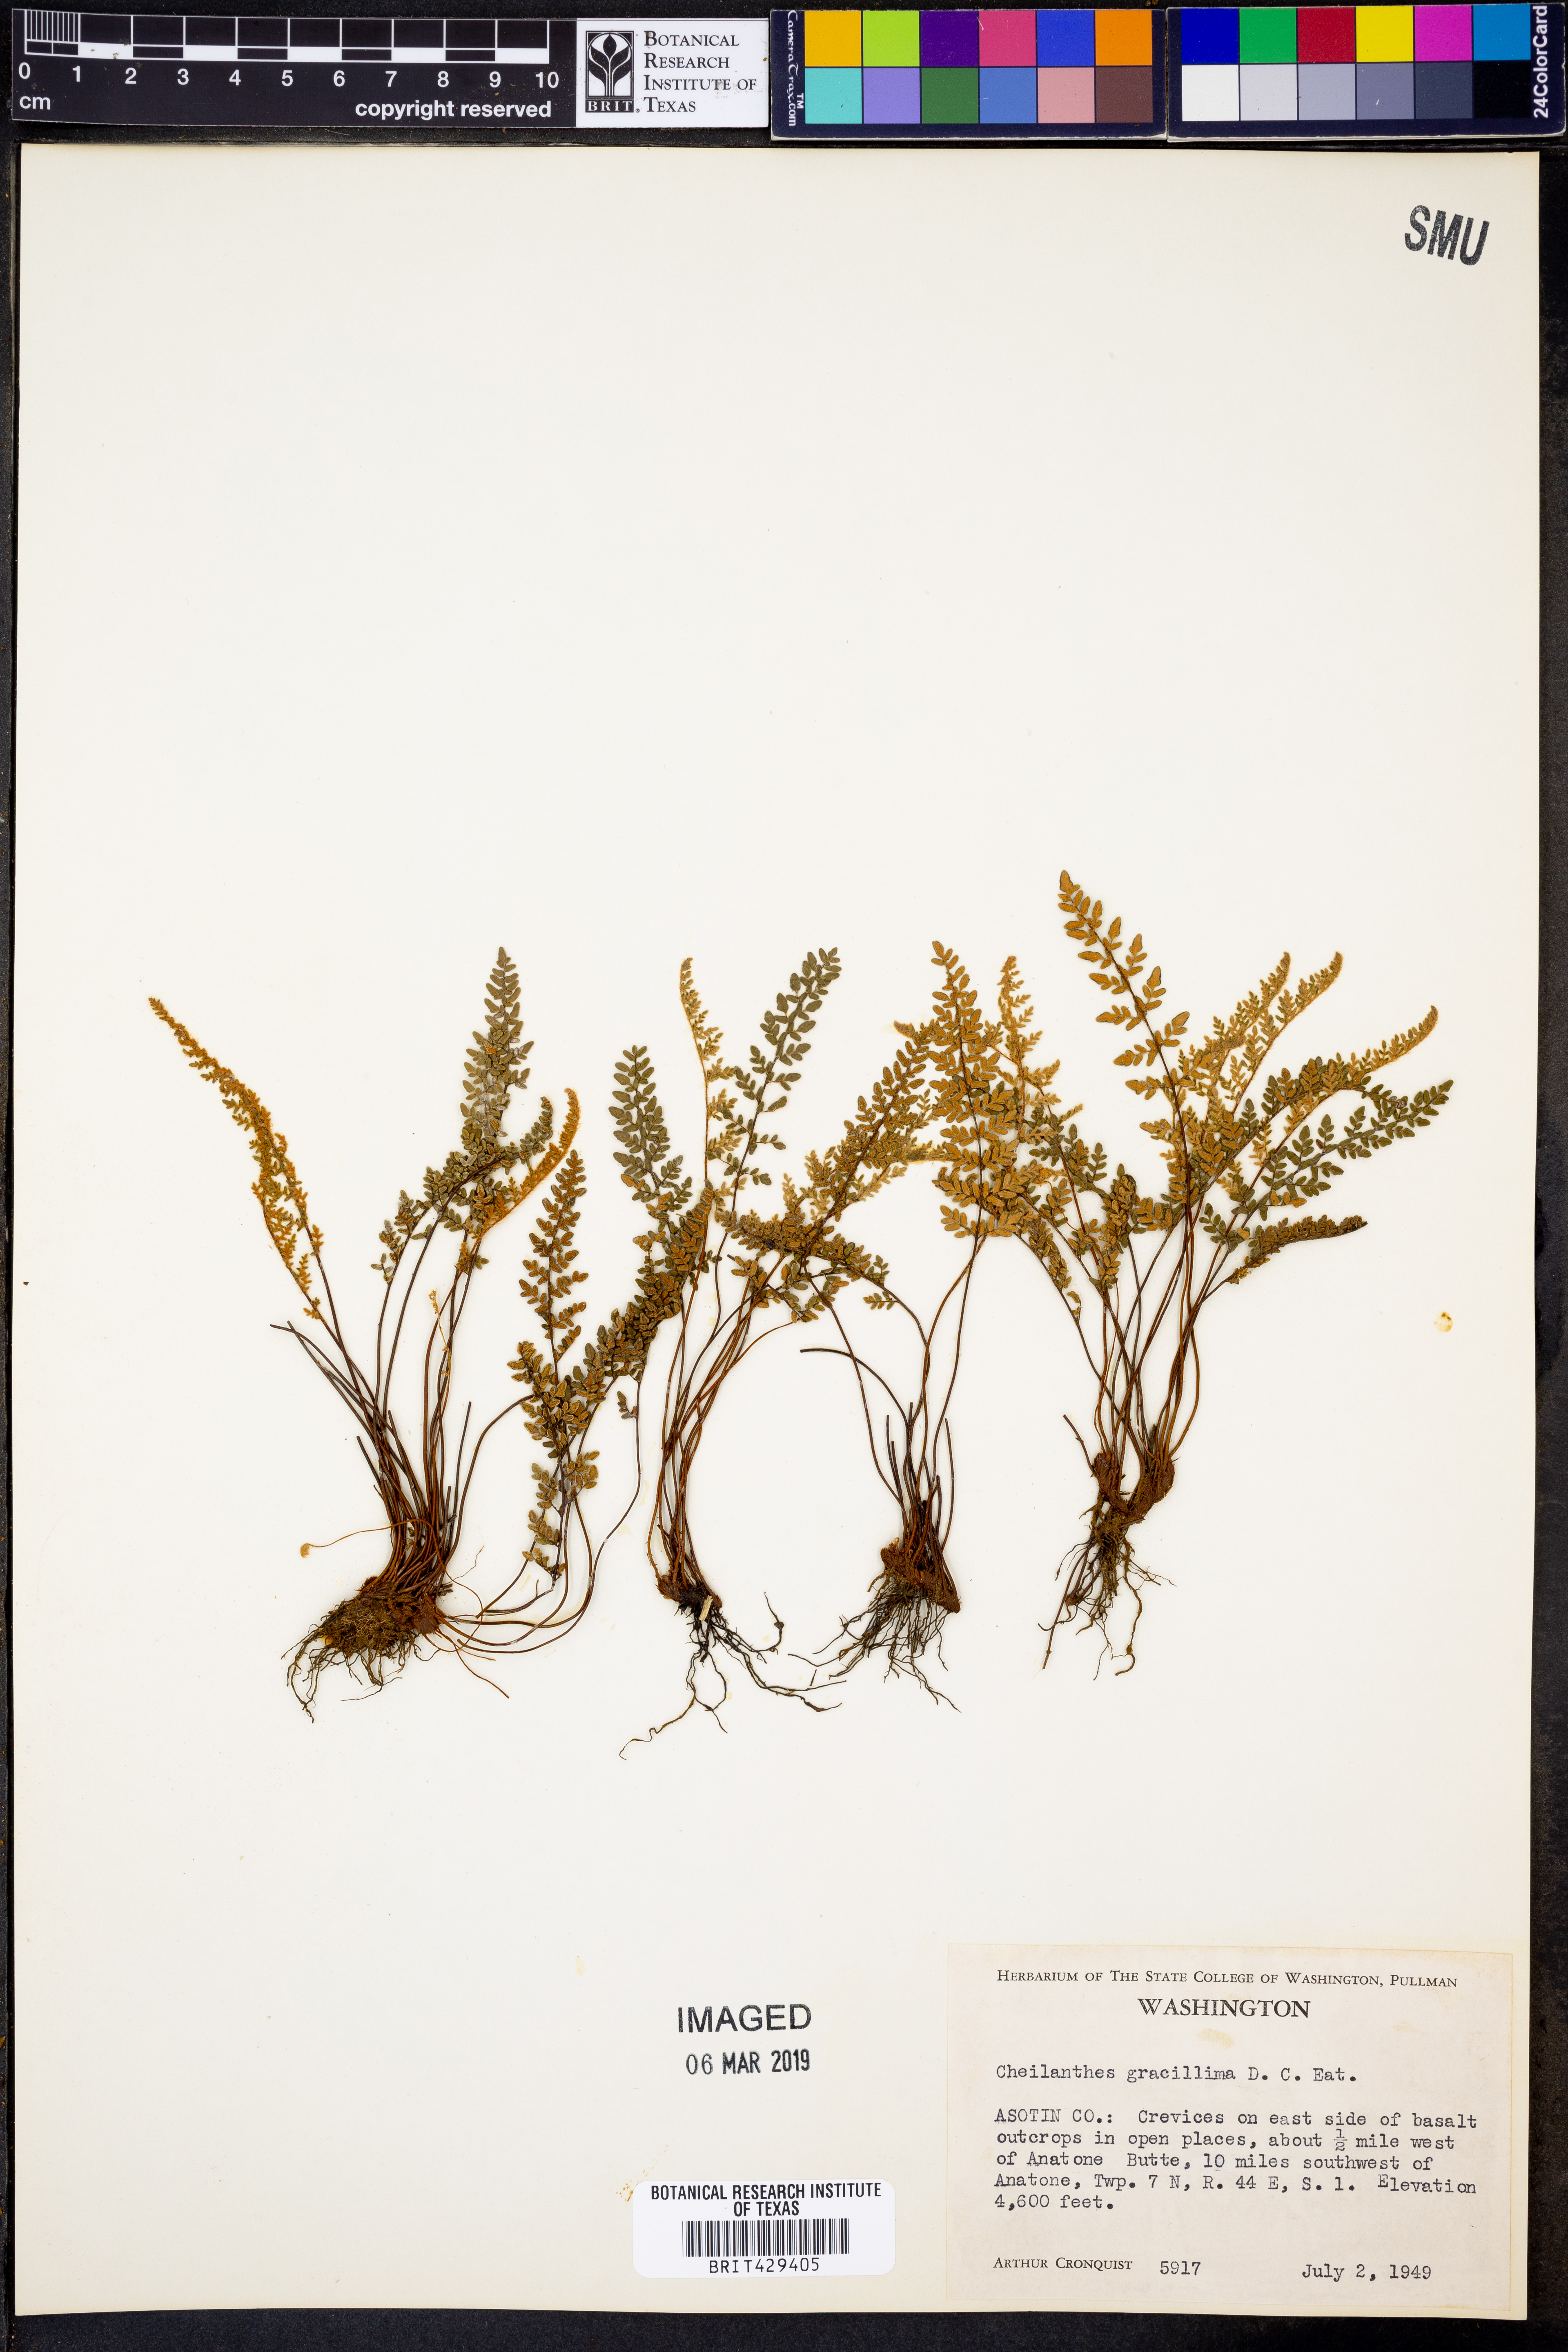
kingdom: Plantae
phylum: Tracheophyta
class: Polypodiopsida
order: Polypodiales
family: Pteridaceae
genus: Myriopteris
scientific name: Myriopteris gracillima
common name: Lace fern
